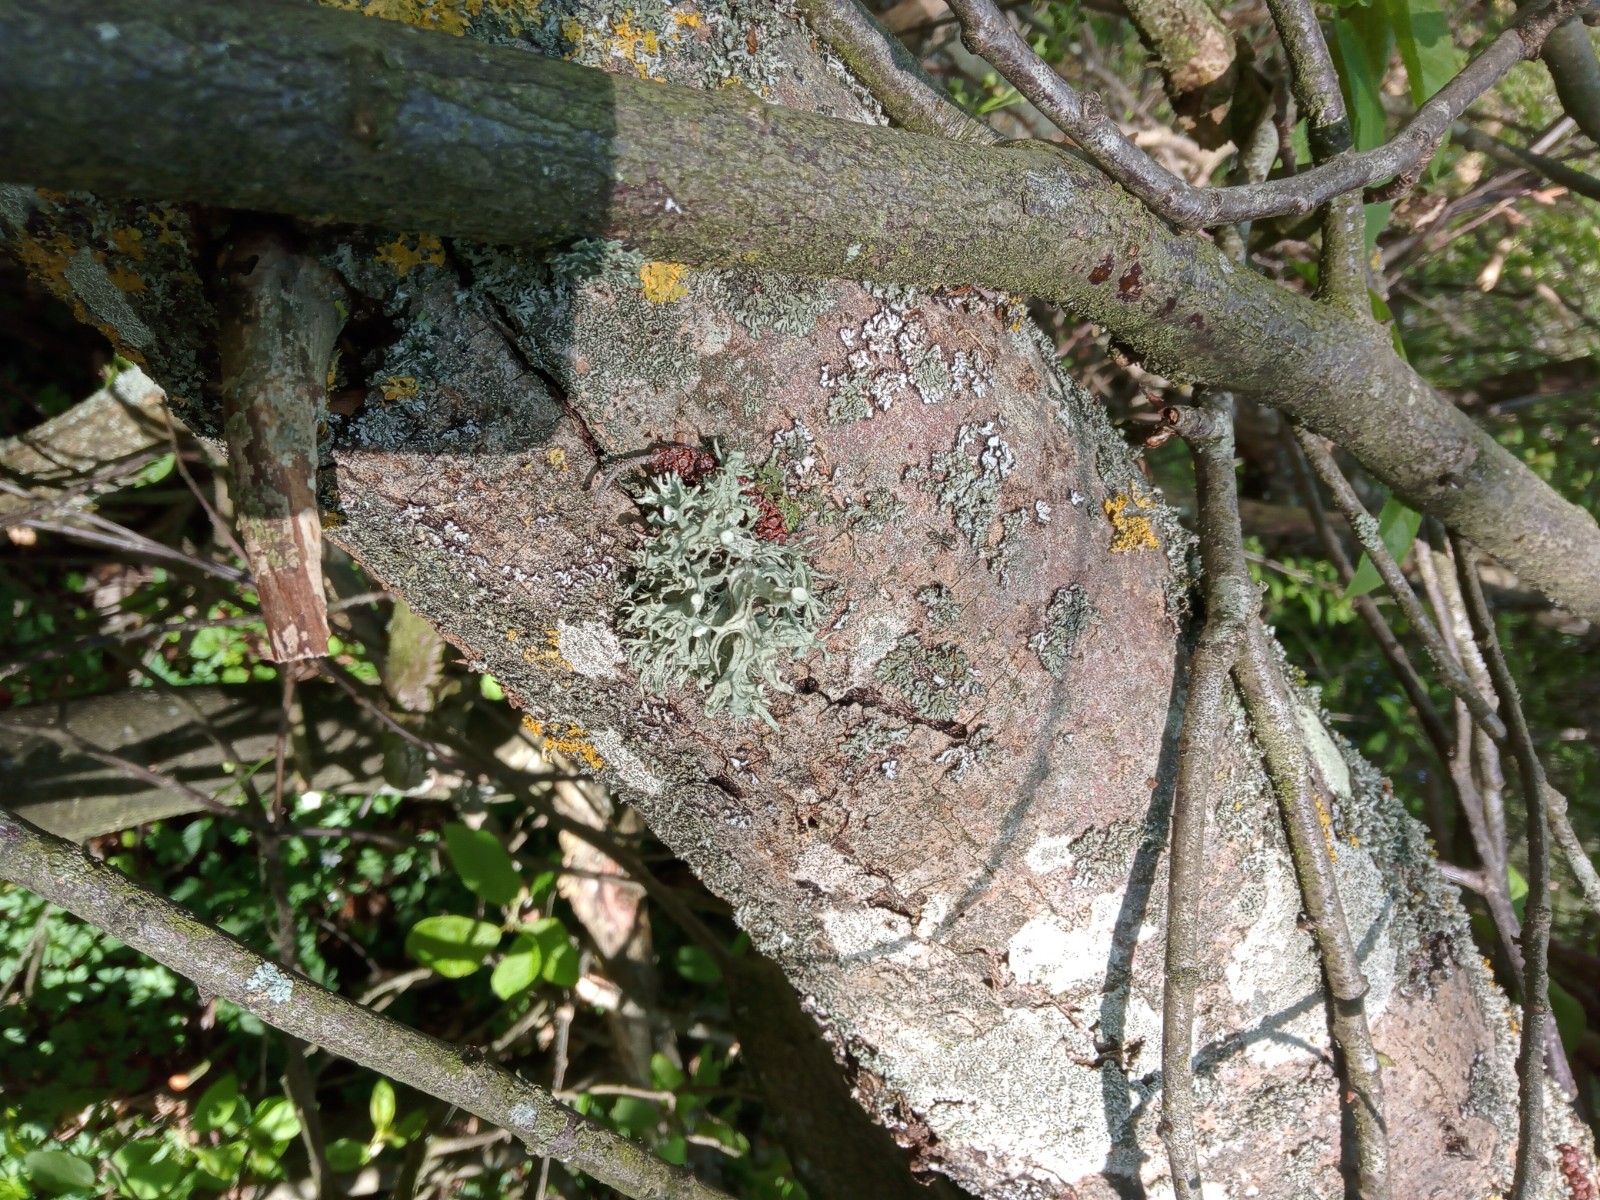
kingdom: Fungi
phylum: Ascomycota
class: Lecanoromycetes
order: Lecanorales
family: Ramalinaceae
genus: Ramalina
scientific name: Ramalina fastigiata
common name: tue-grenlav
